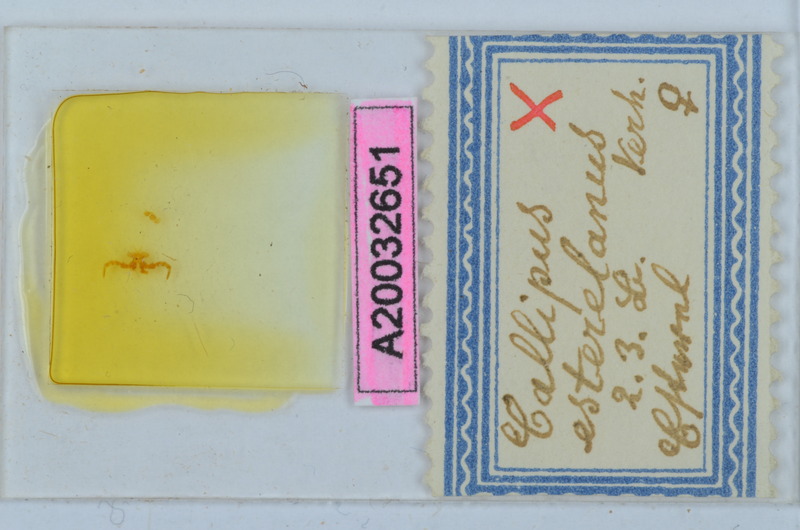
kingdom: Animalia
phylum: Arthropoda
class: Arachnida
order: Sarcoptiformes
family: Scheloribatidae
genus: Scheloribates
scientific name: Scheloribates
